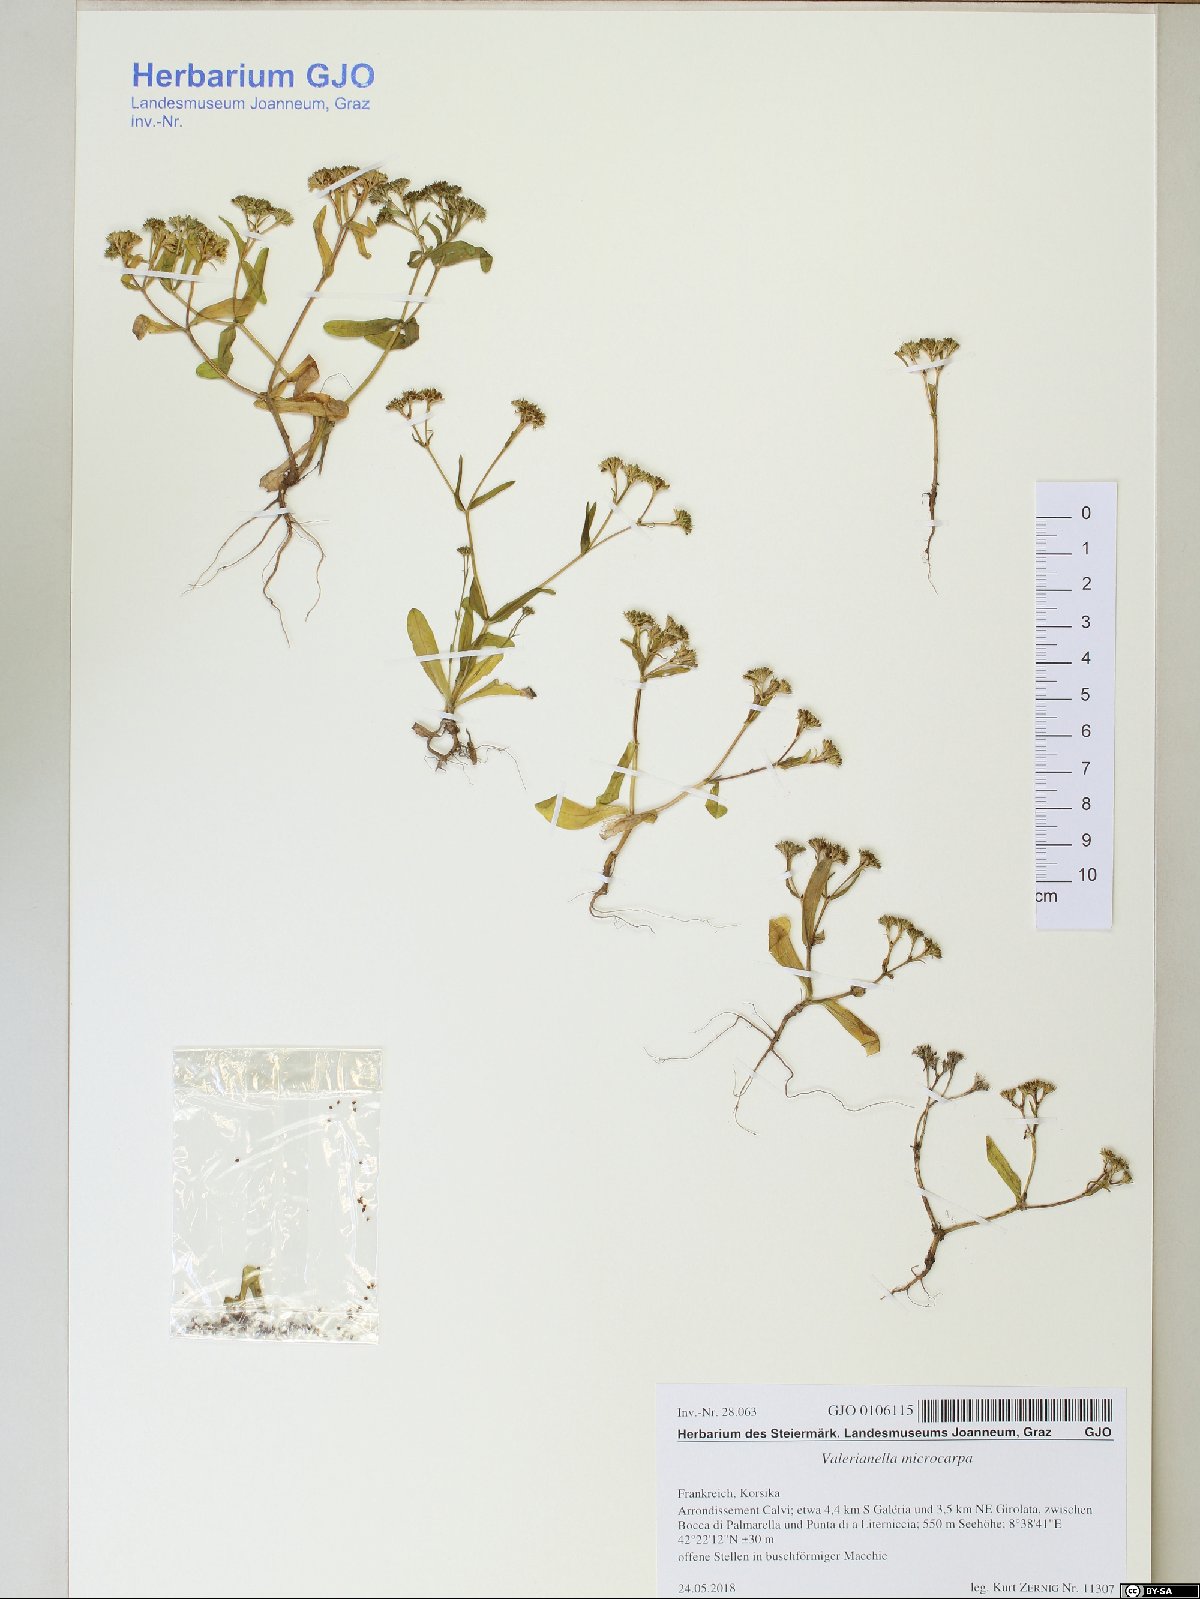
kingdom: Plantae
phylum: Tracheophyta
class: Magnoliopsida
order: Dipsacales
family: Caprifoliaceae
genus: Valerianella
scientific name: Valerianella microcarpa
